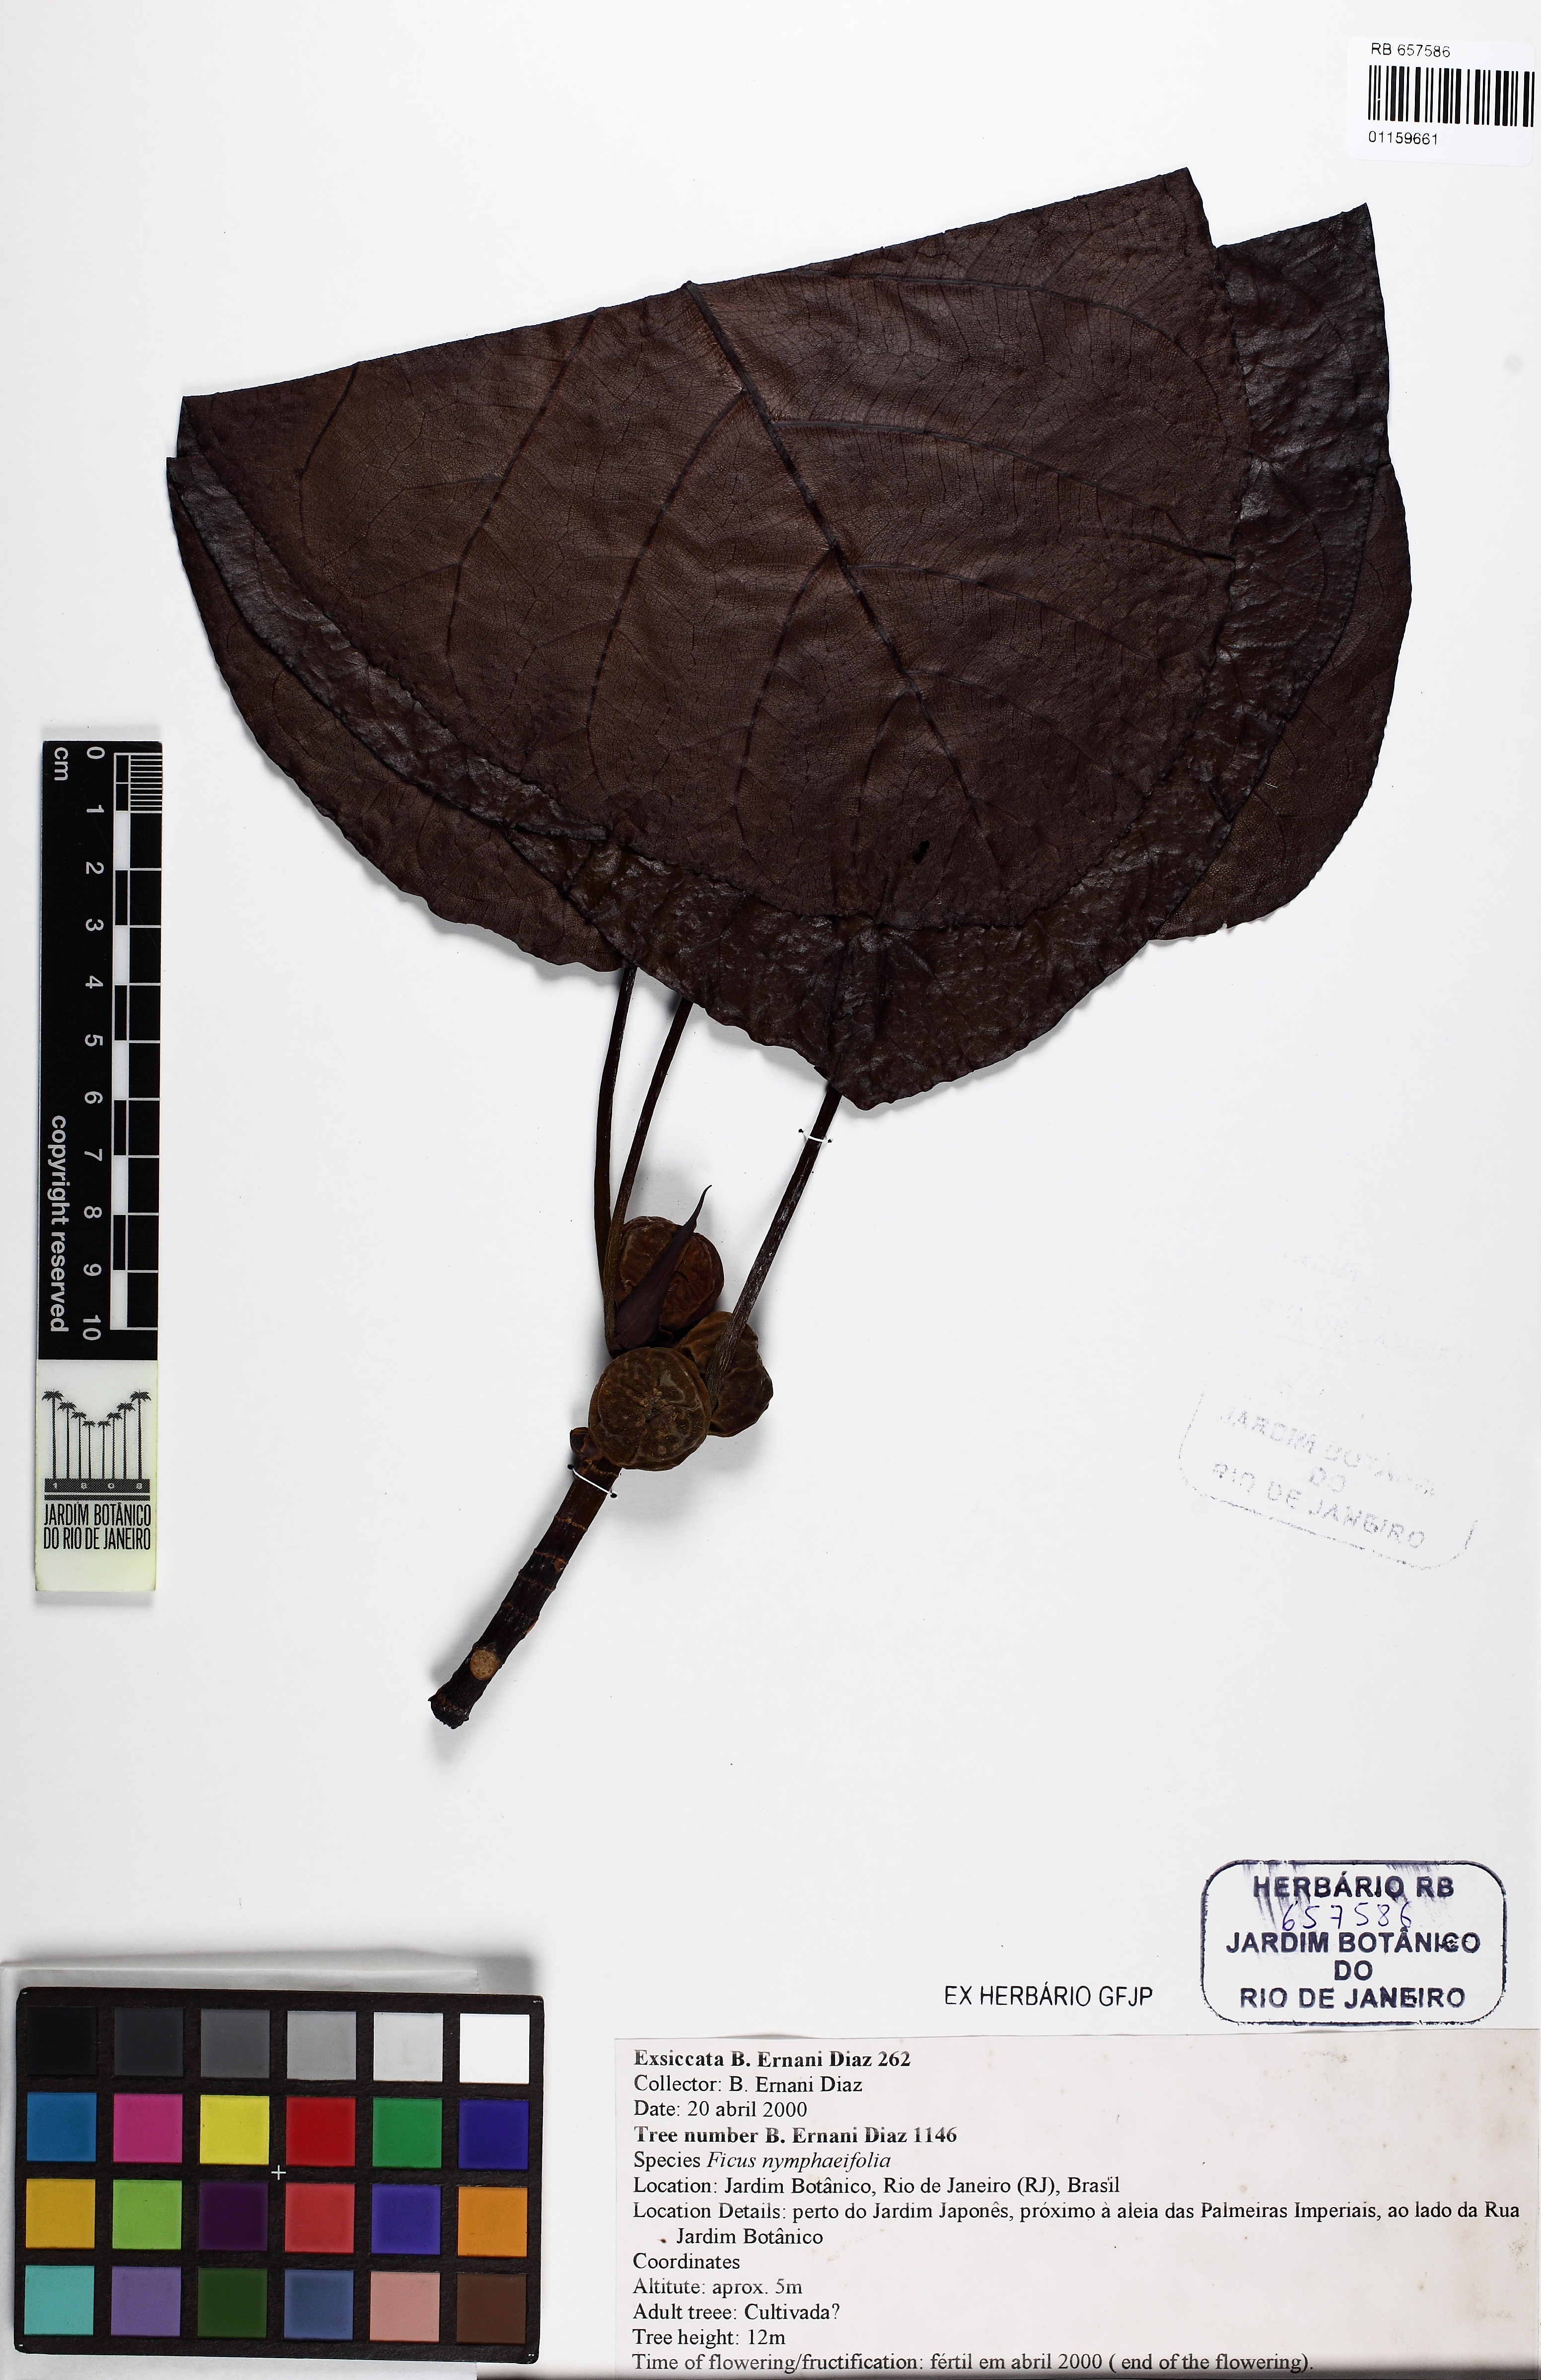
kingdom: Plantae
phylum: Tracheophyta
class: Magnoliopsida
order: Rosales
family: Moraceae
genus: Ficus
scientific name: Ficus nymphaeifolia
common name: Fig
